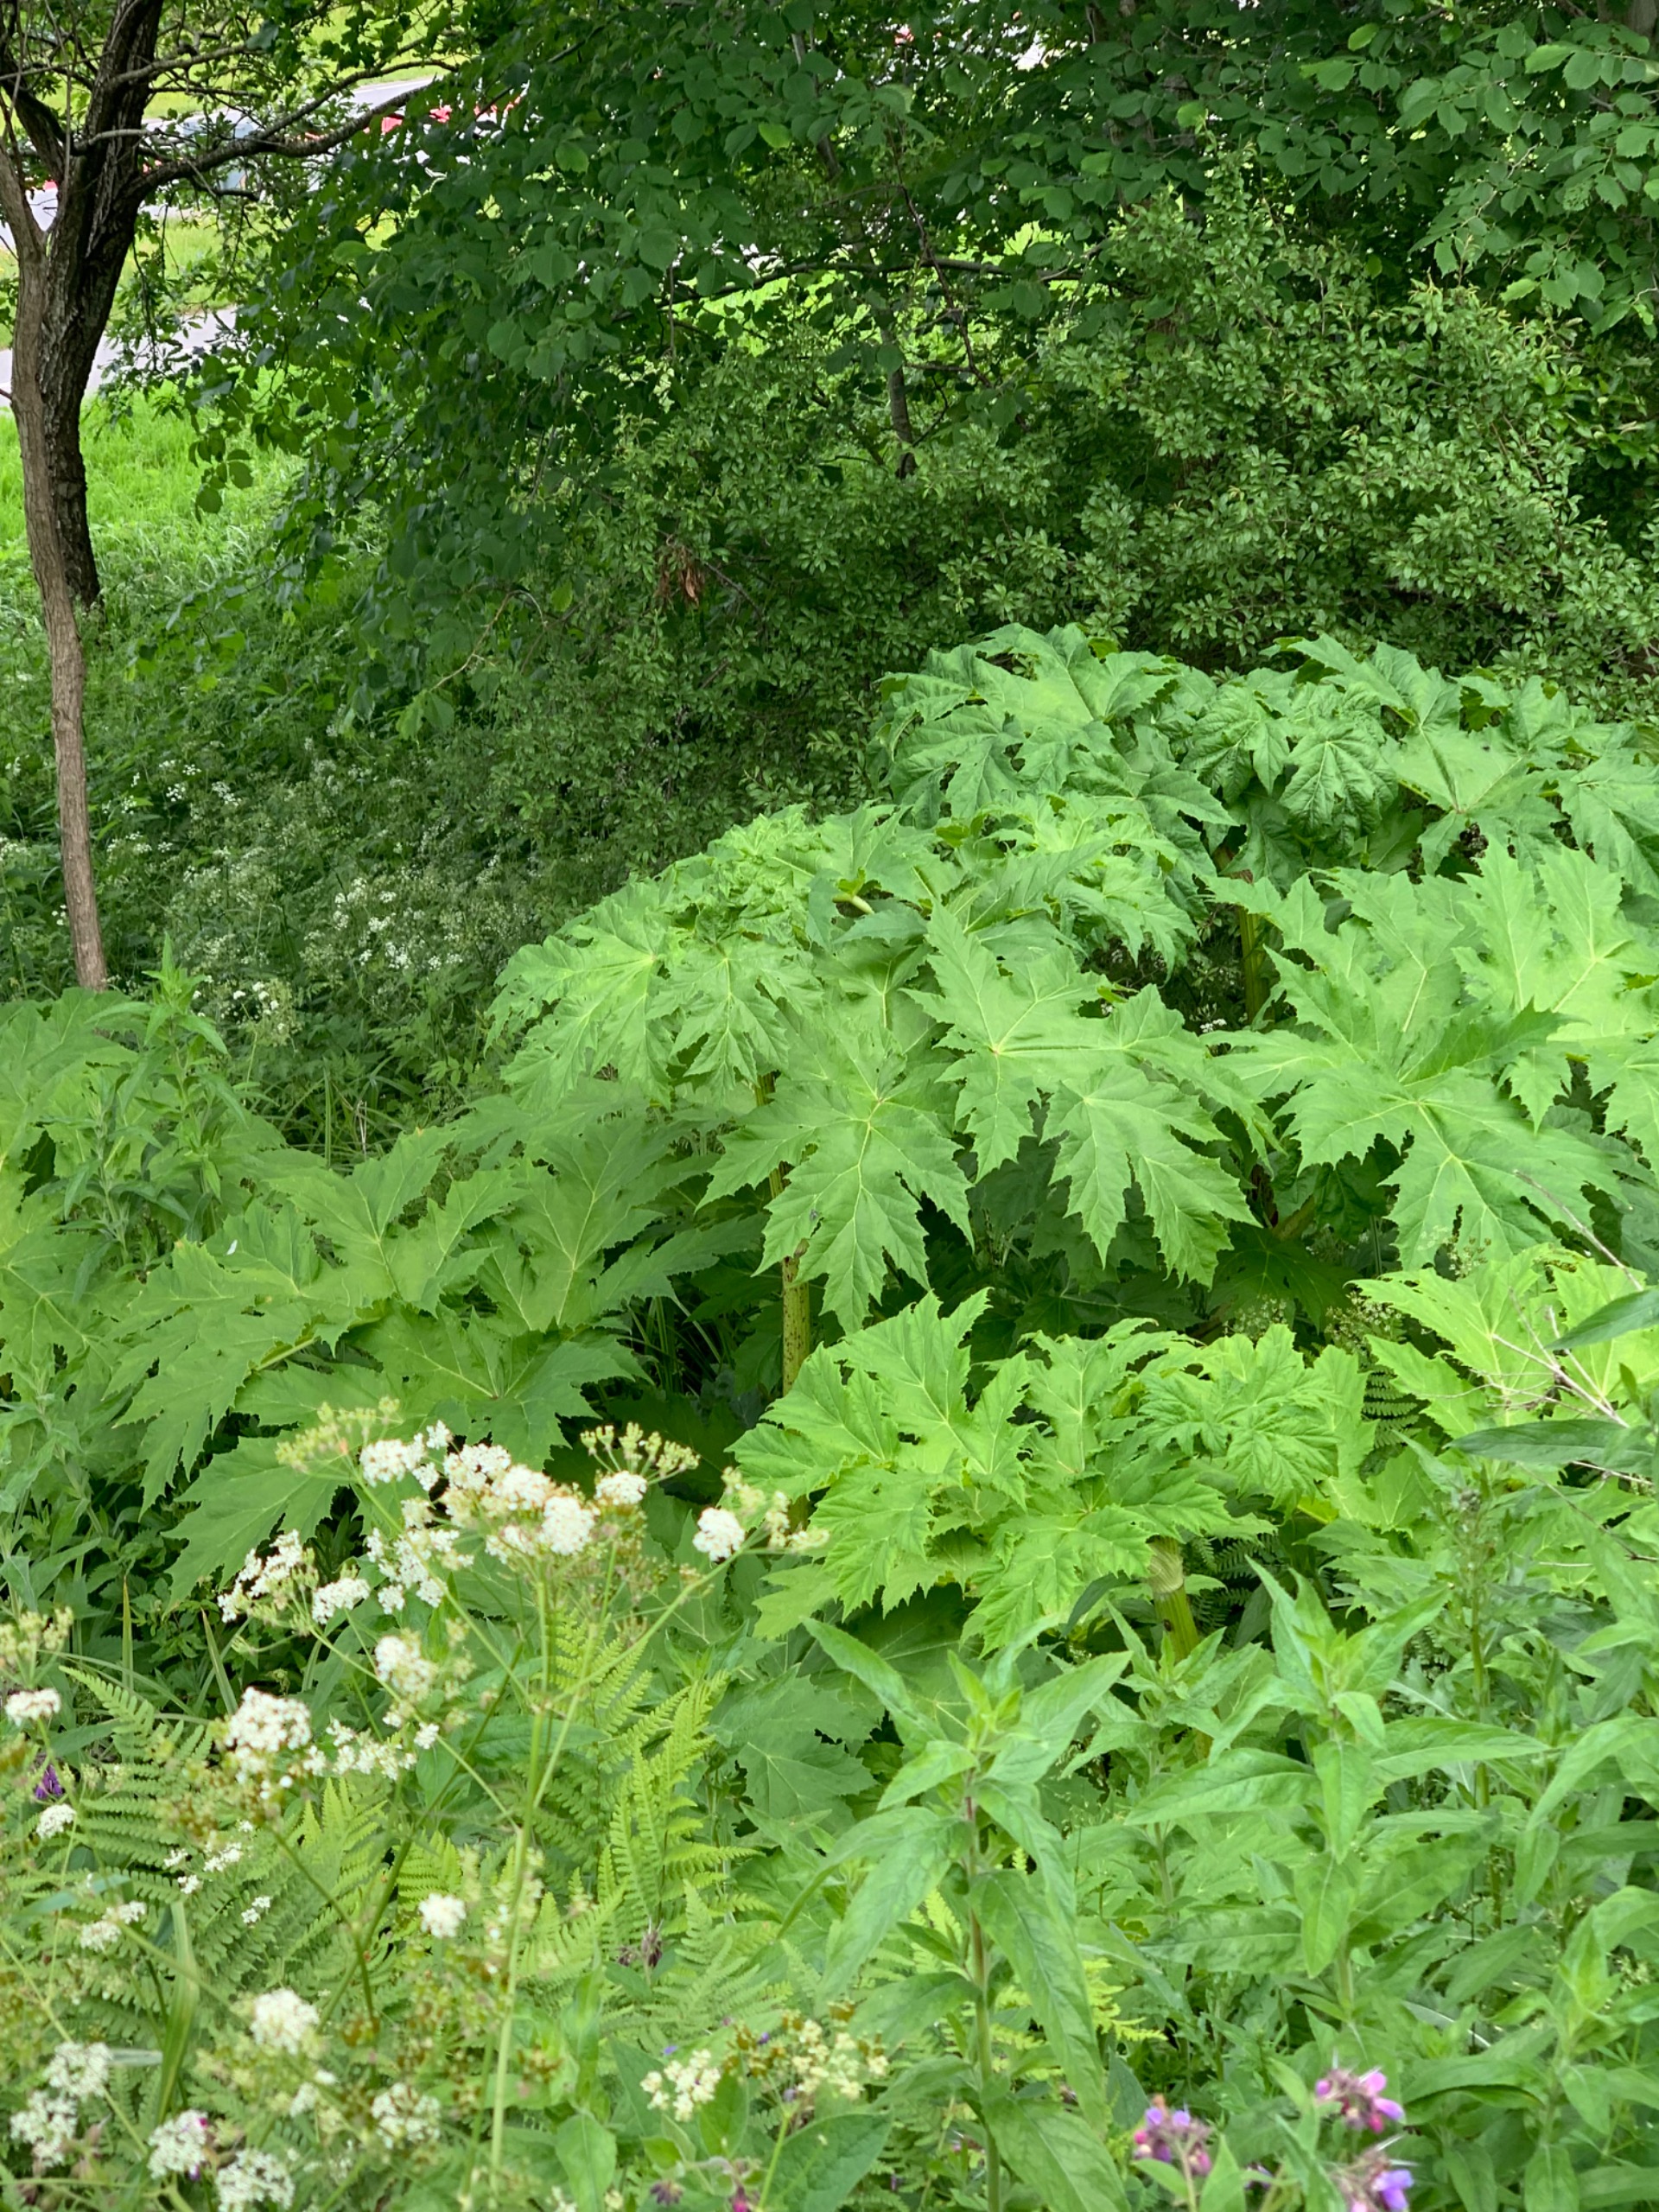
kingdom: Plantae
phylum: Tracheophyta
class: Magnoliopsida
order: Apiales
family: Apiaceae
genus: Heracleum
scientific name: Heracleum mantegazzianum
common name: Kæmpe-bjørneklo
